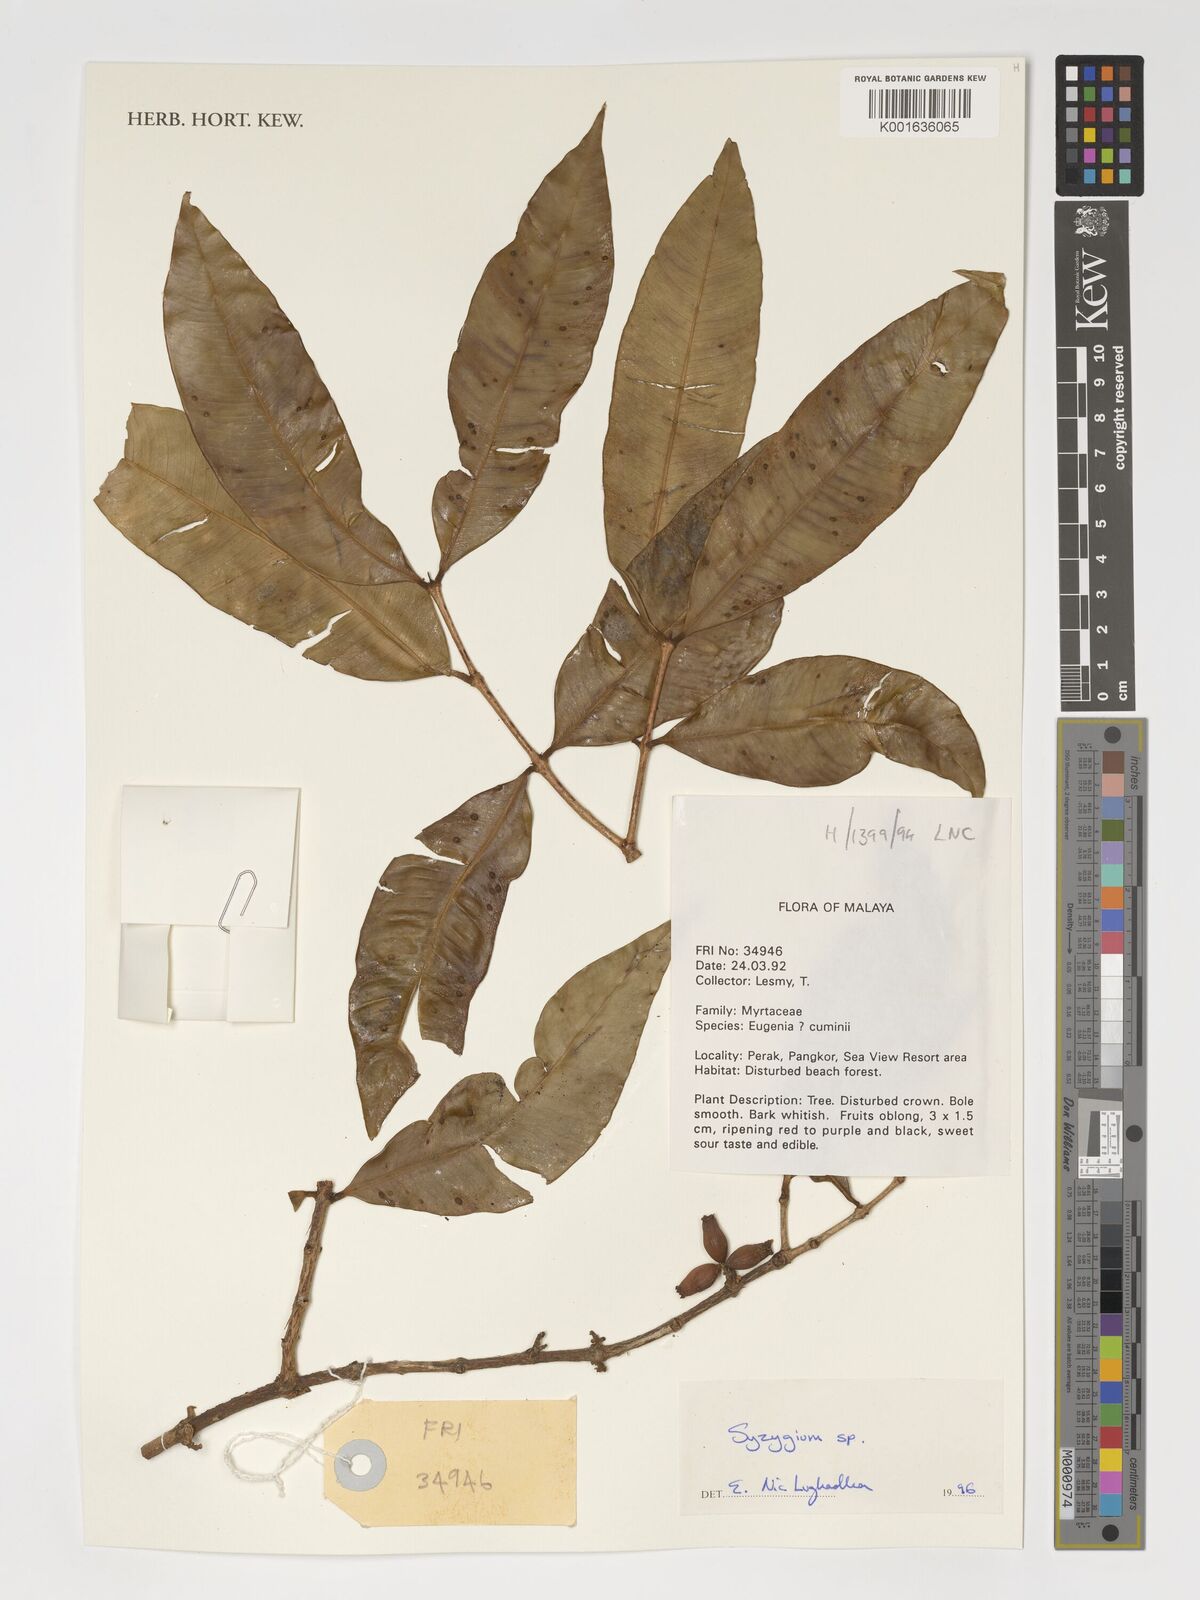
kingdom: Plantae
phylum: Tracheophyta
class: Magnoliopsida
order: Myrtales
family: Myrtaceae
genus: Syzygium
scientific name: Syzygium
